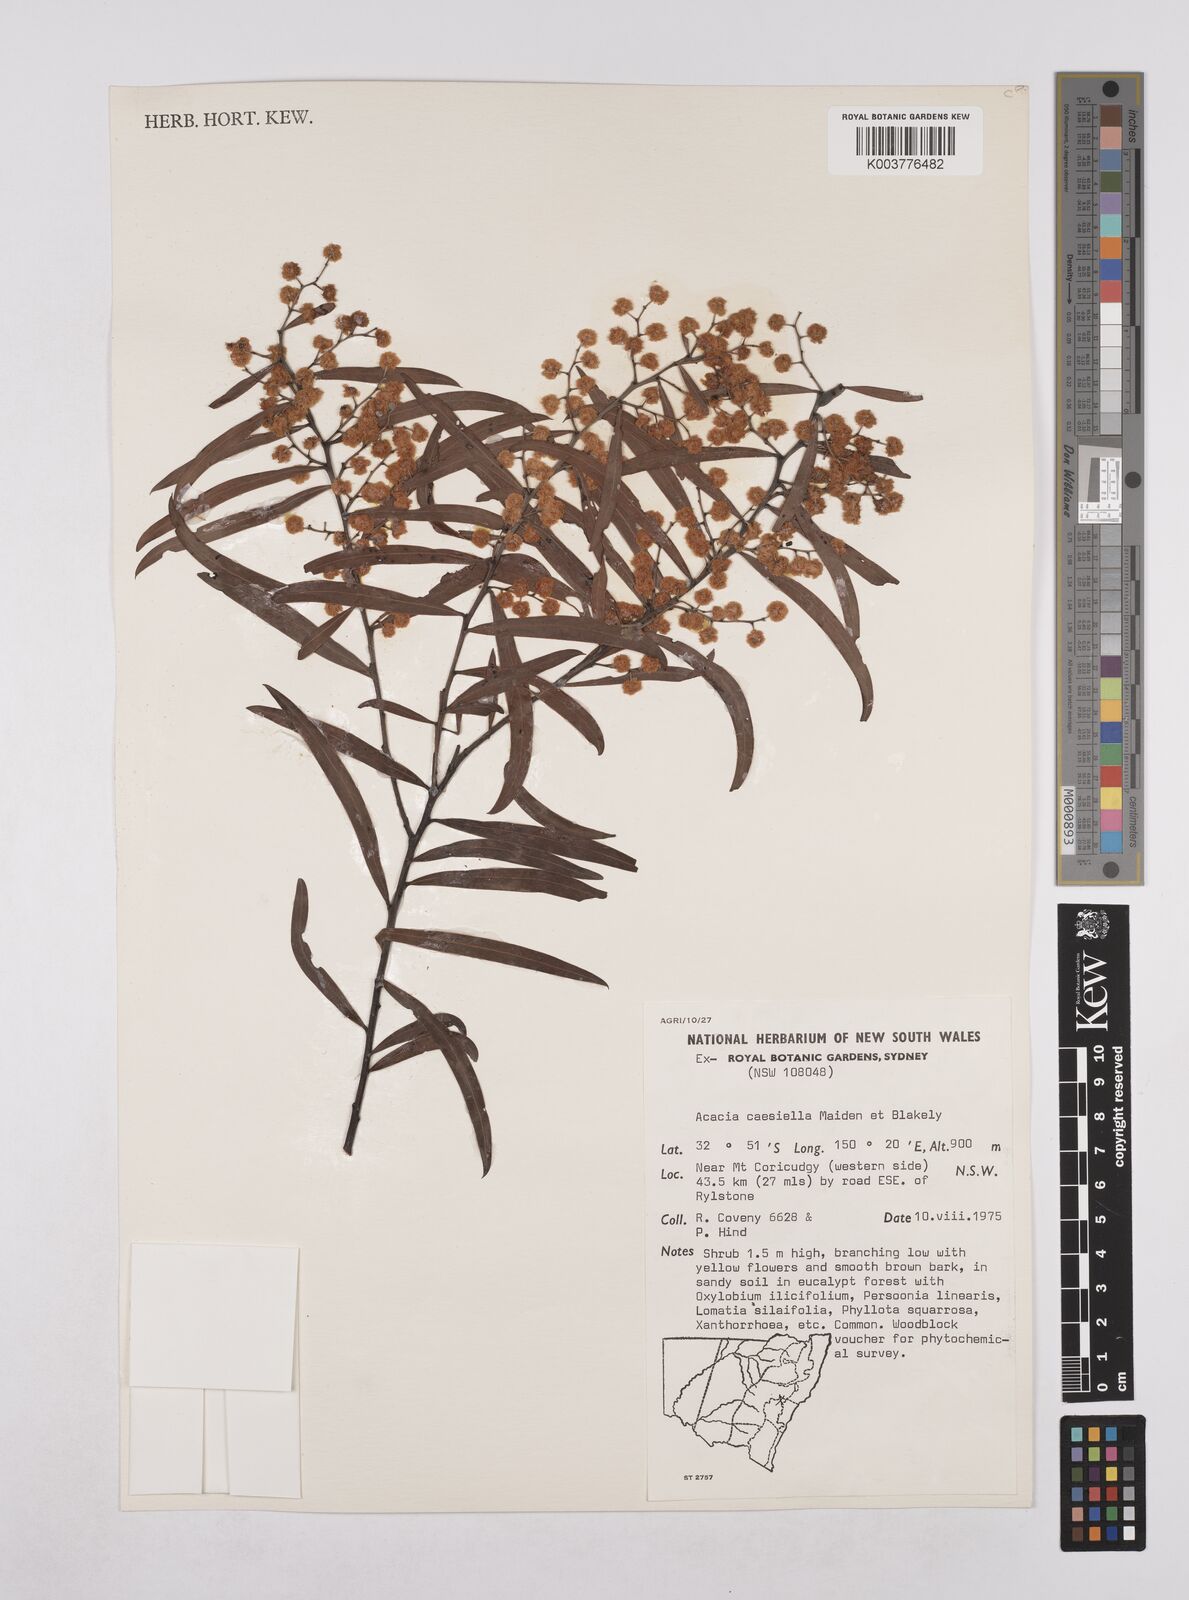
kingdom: Plantae
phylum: Tracheophyta
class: Magnoliopsida
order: Fabales
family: Fabaceae
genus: Acacia
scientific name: Acacia caesiella
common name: Tableland wattle
